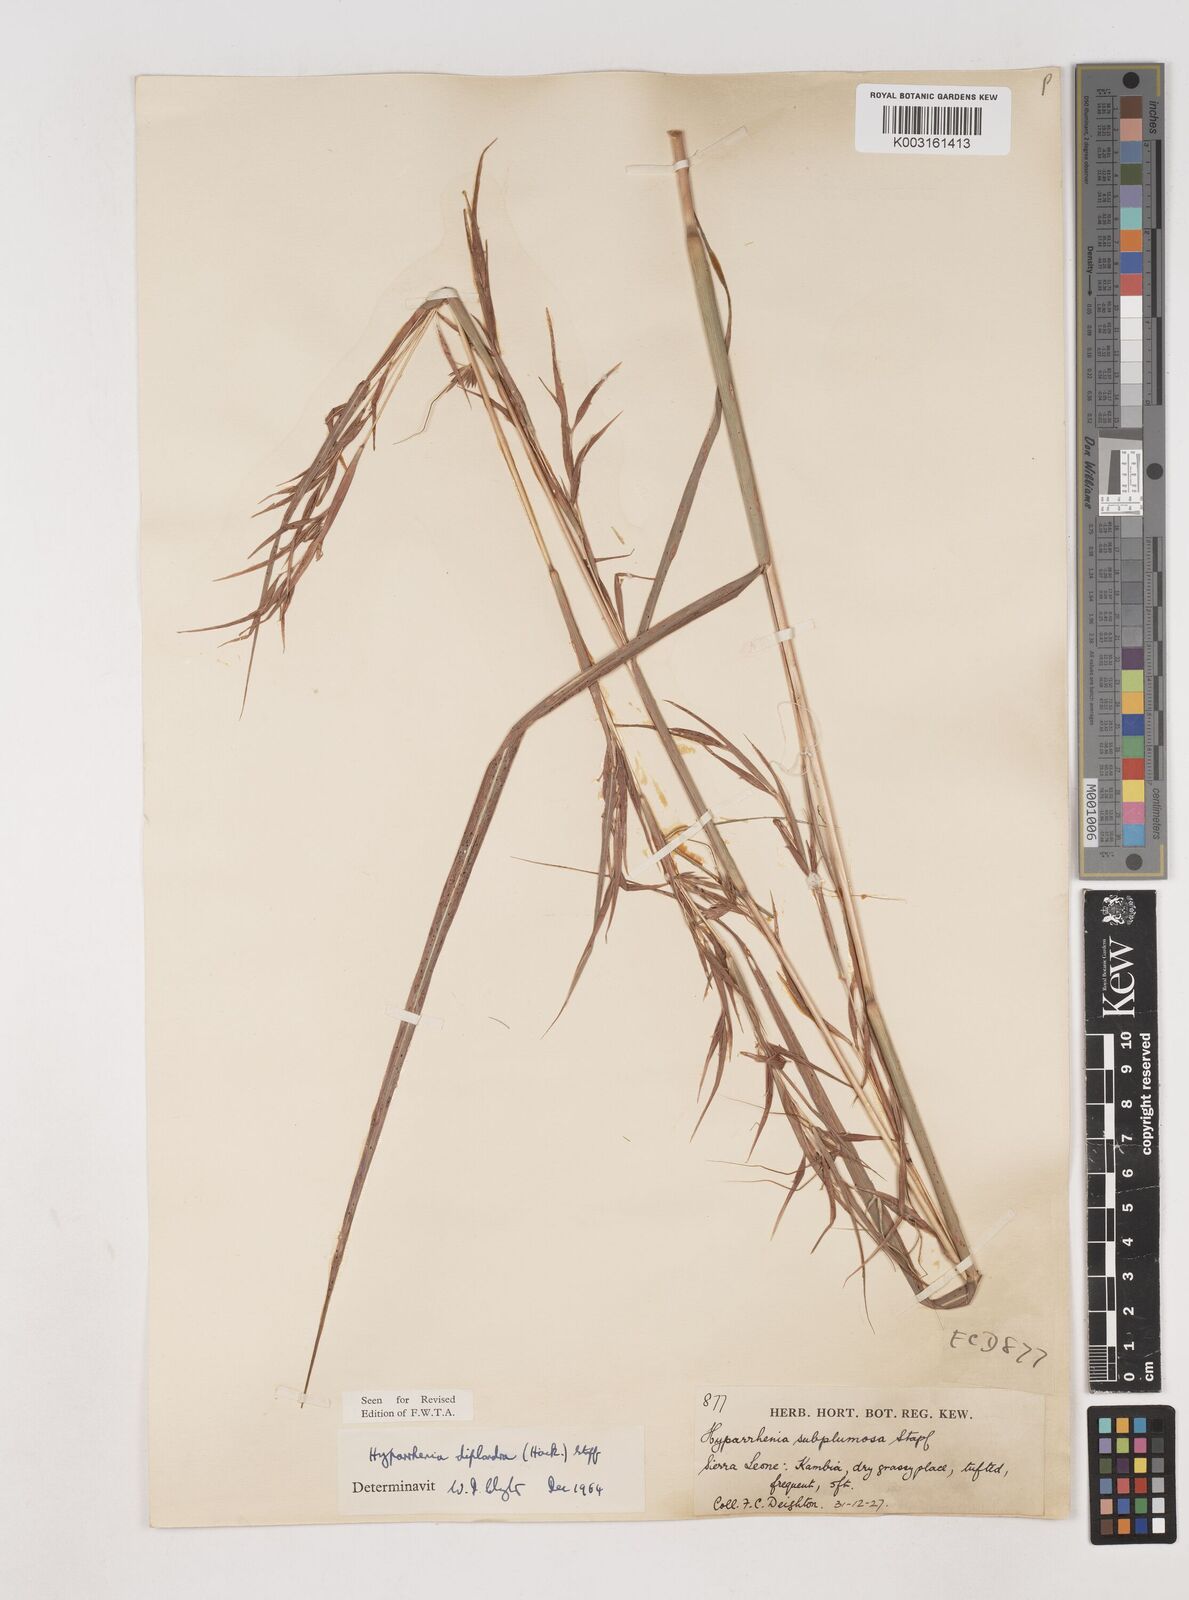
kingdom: Plantae
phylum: Tracheophyta
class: Liliopsida
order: Poales
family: Poaceae
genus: Hyparrhenia
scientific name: Hyparrhenia diplandra
